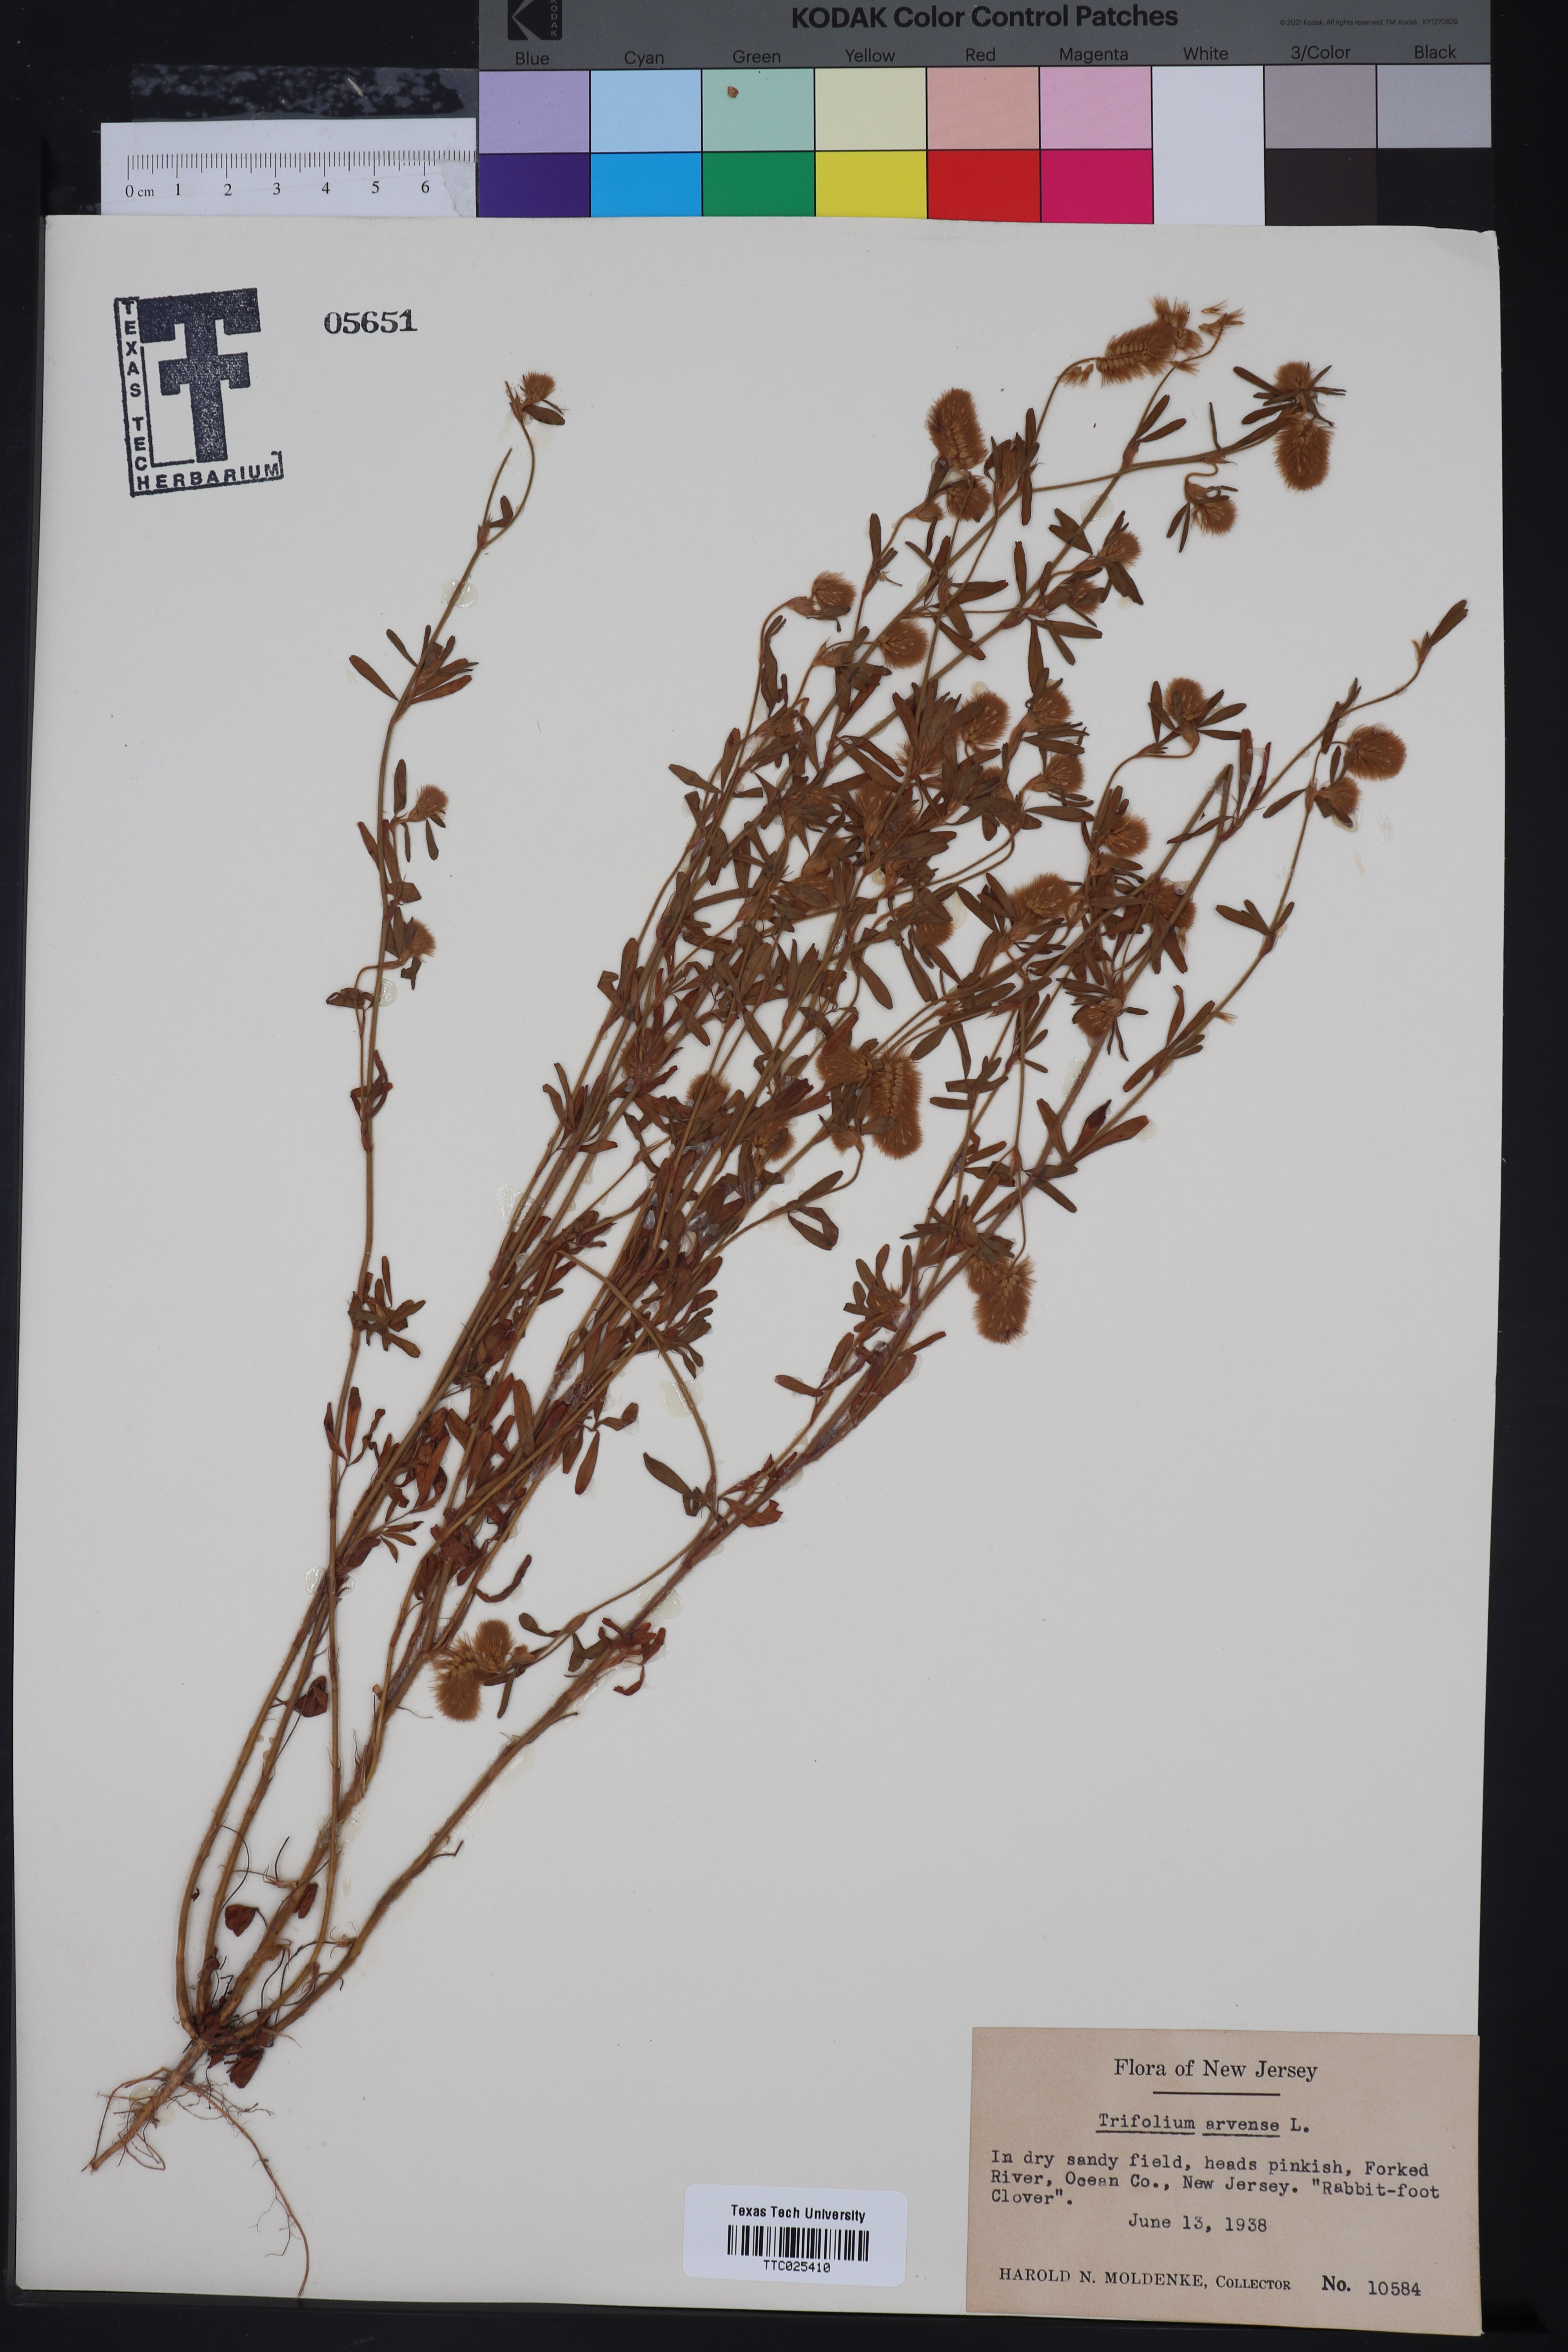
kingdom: Plantae
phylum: Tracheophyta
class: Magnoliopsida
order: Fabales
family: Fabaceae
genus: Trifolium
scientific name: Trifolium arvense
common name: Hare's-foot clover
